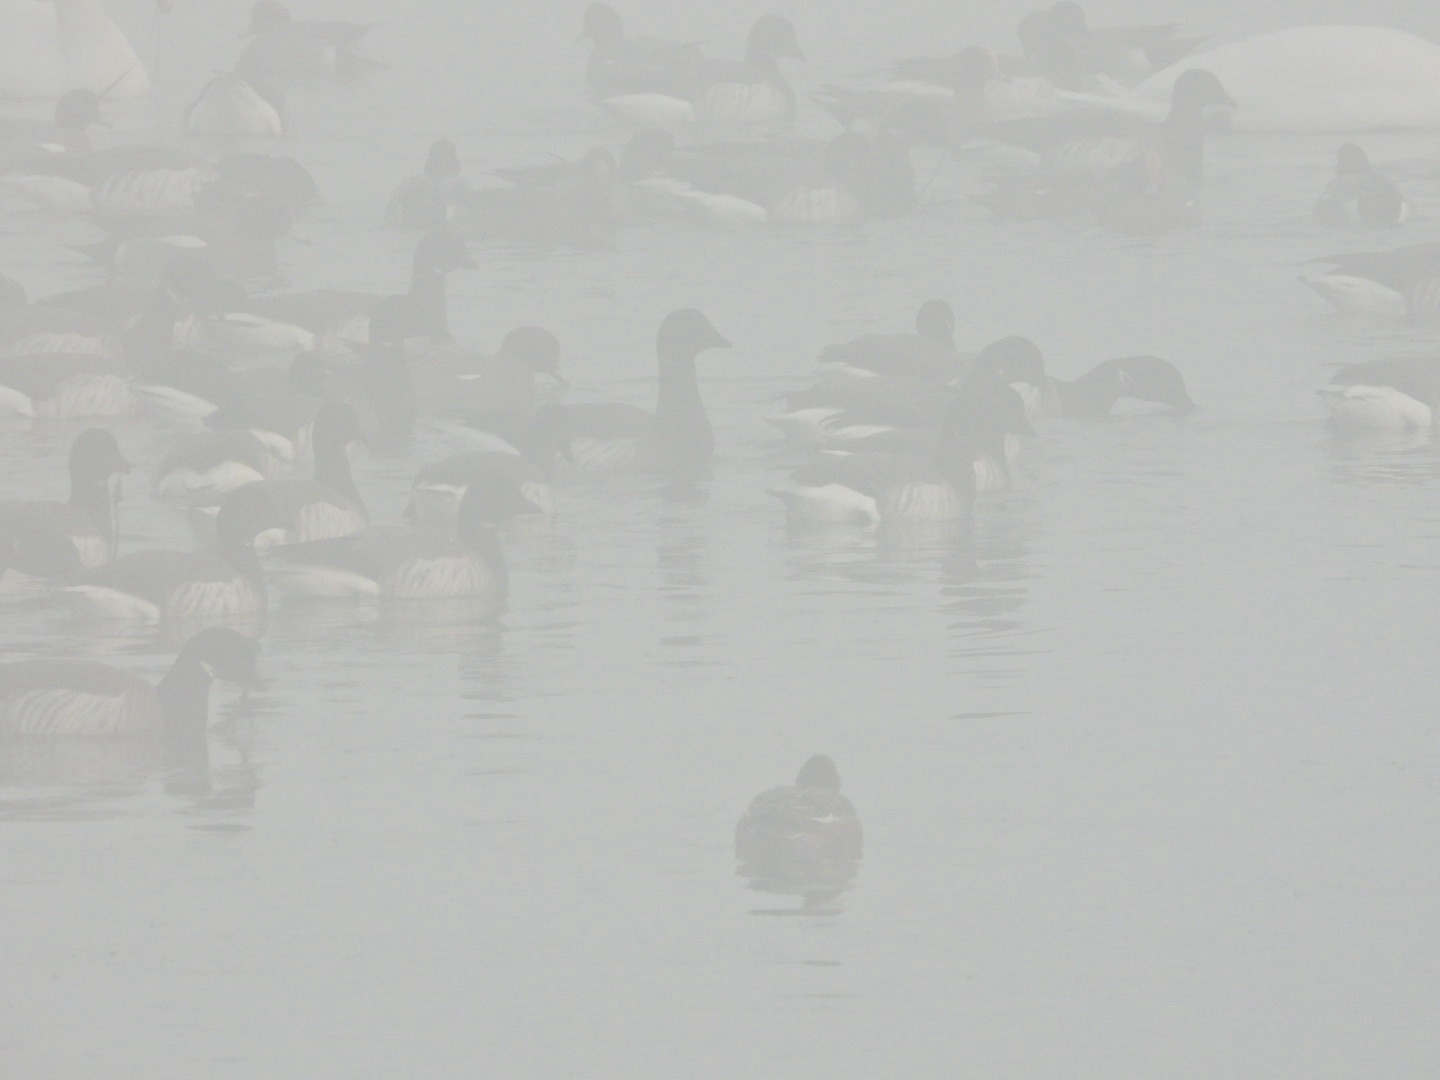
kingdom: Animalia
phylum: Chordata
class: Aves
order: Anseriformes
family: Anatidae
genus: Branta
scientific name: Branta bernicla
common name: Lysbuget knortegås
